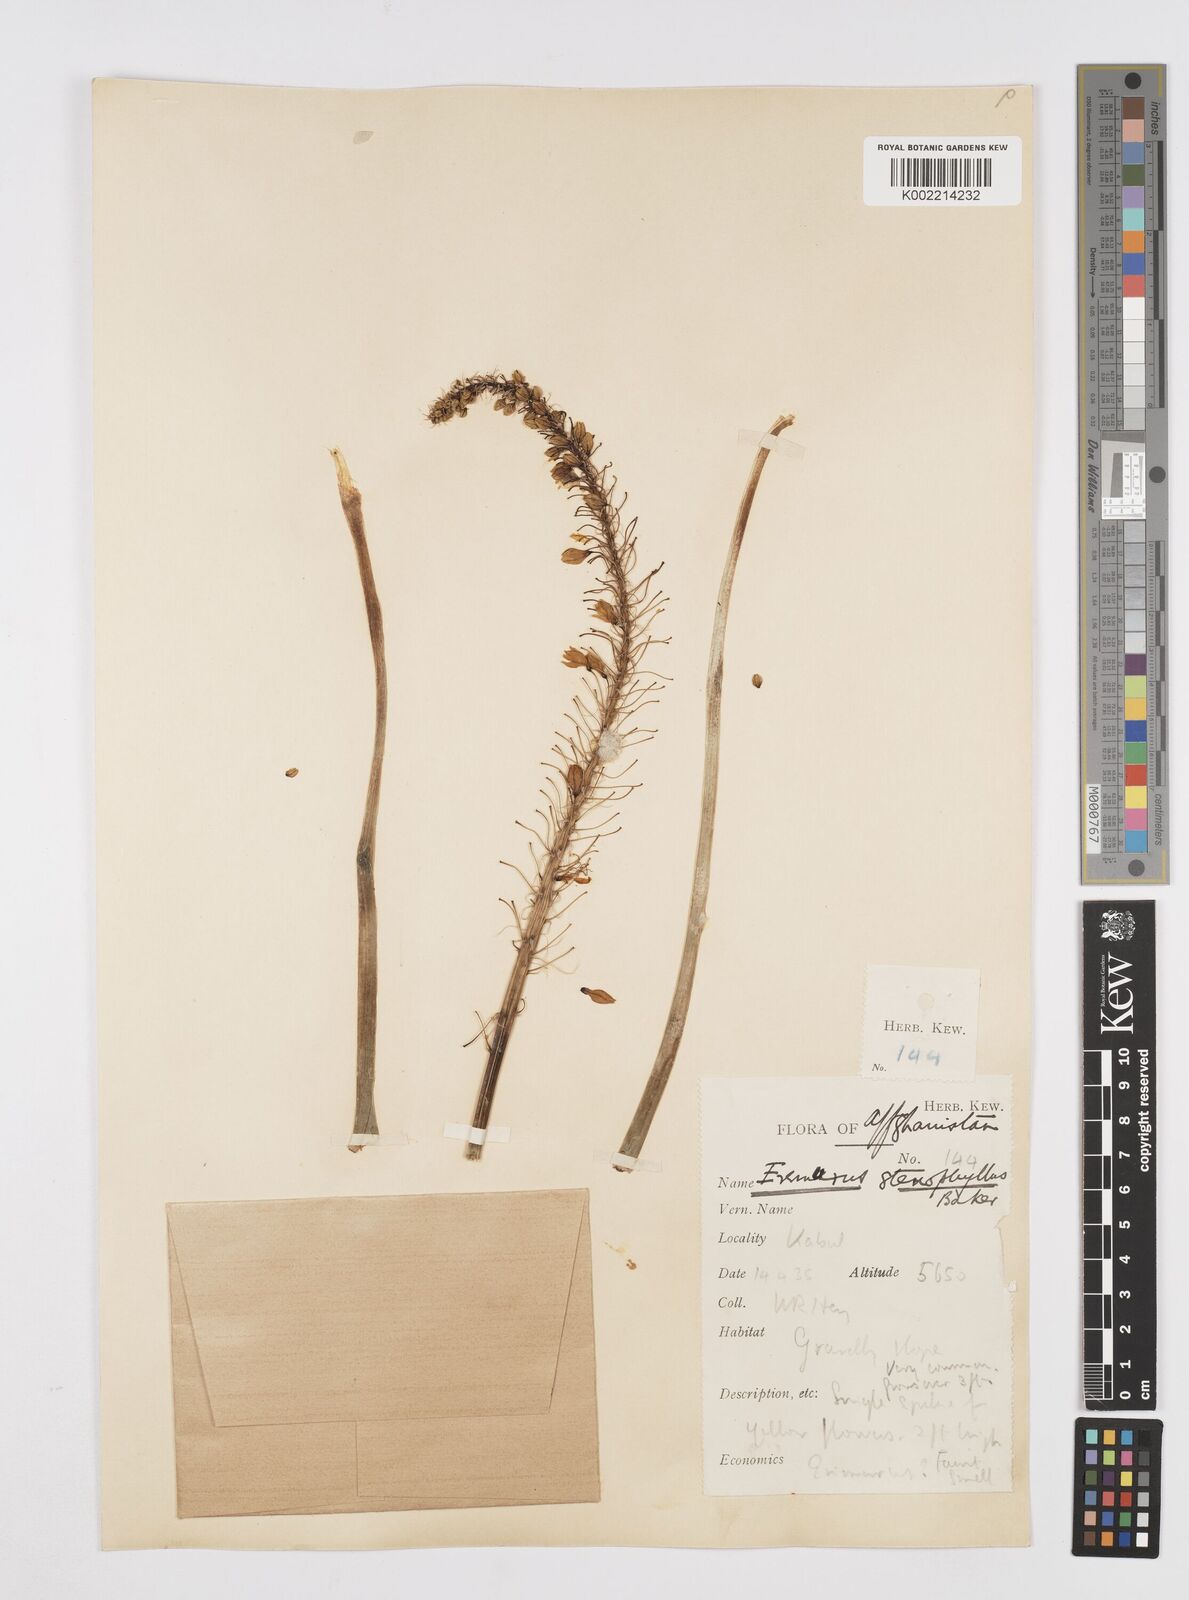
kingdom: Plantae
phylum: Tracheophyta
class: Liliopsida
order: Asparagales
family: Asphodelaceae
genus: Eremurus
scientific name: Eremurus stenophyllus
